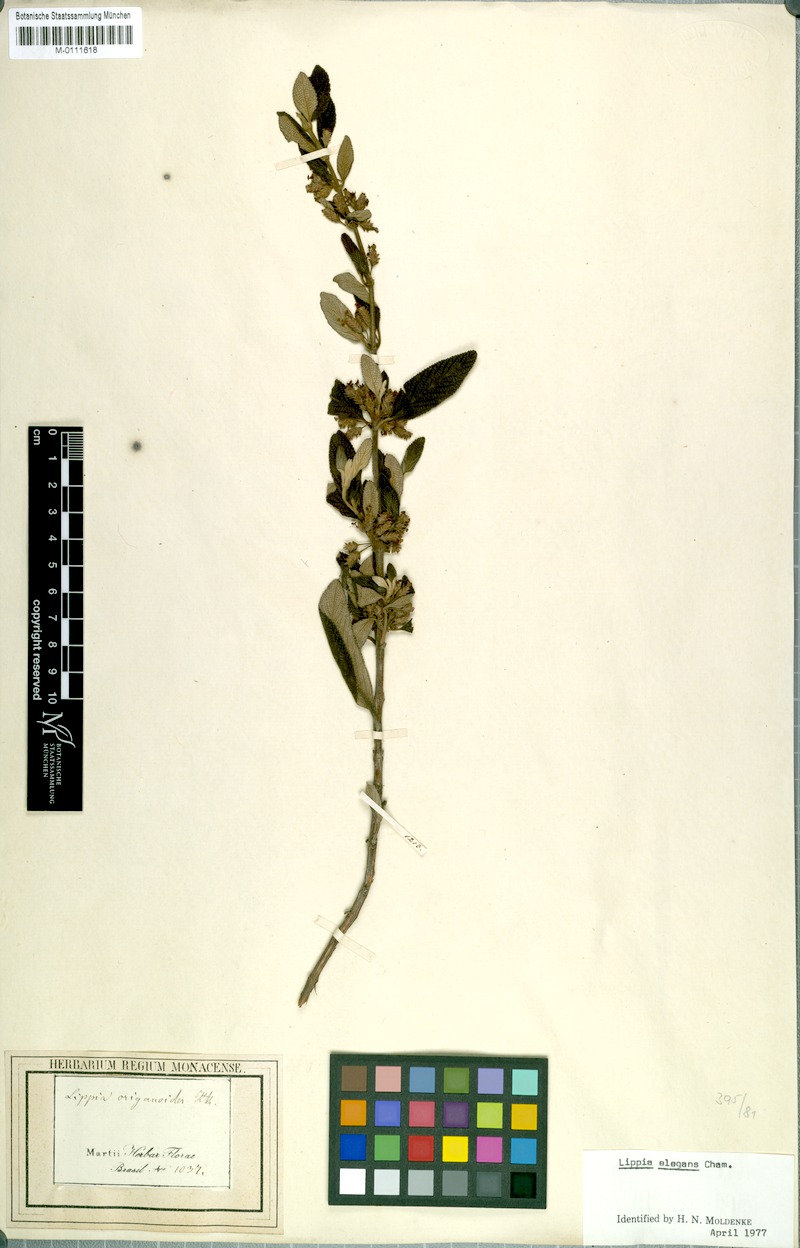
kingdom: Plantae
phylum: Tracheophyta
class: Magnoliopsida
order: Lamiales
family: Verbenaceae
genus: Lippia
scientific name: Lippia origanoides
